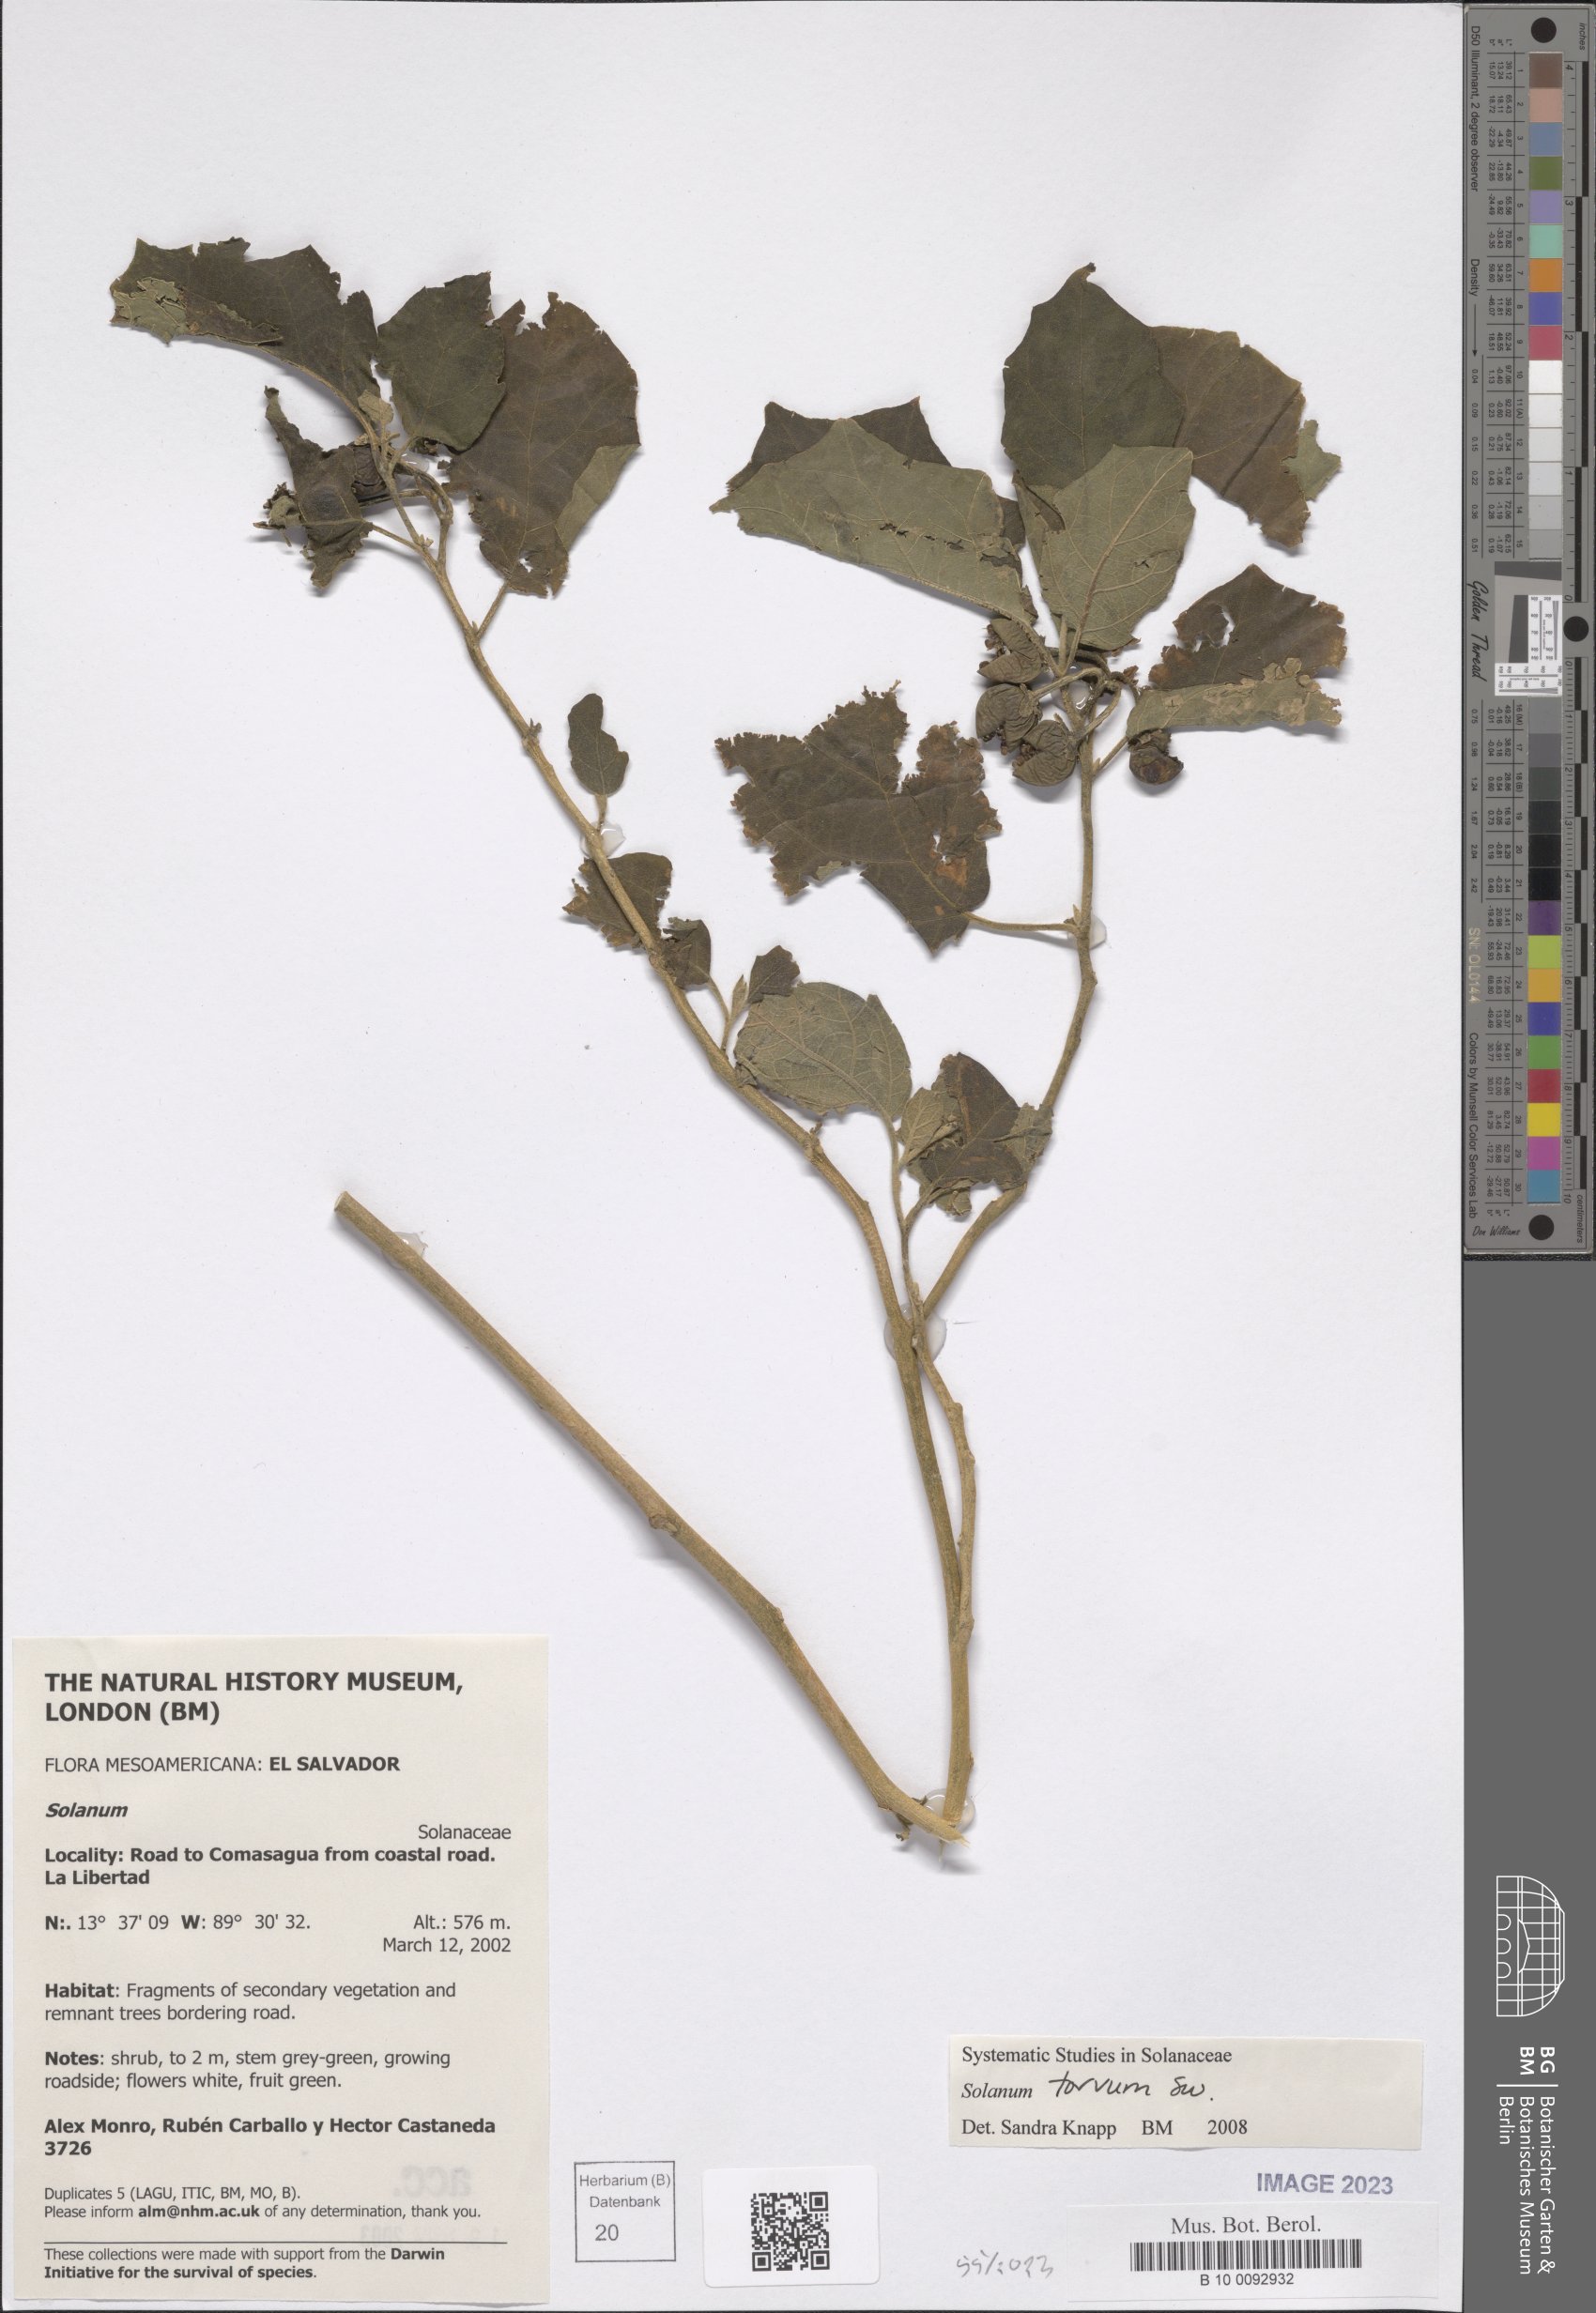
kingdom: Plantae
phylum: Tracheophyta
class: Magnoliopsida
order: Solanales
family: Solanaceae
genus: Solanum
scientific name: Solanum torvum
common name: Turkey berry
